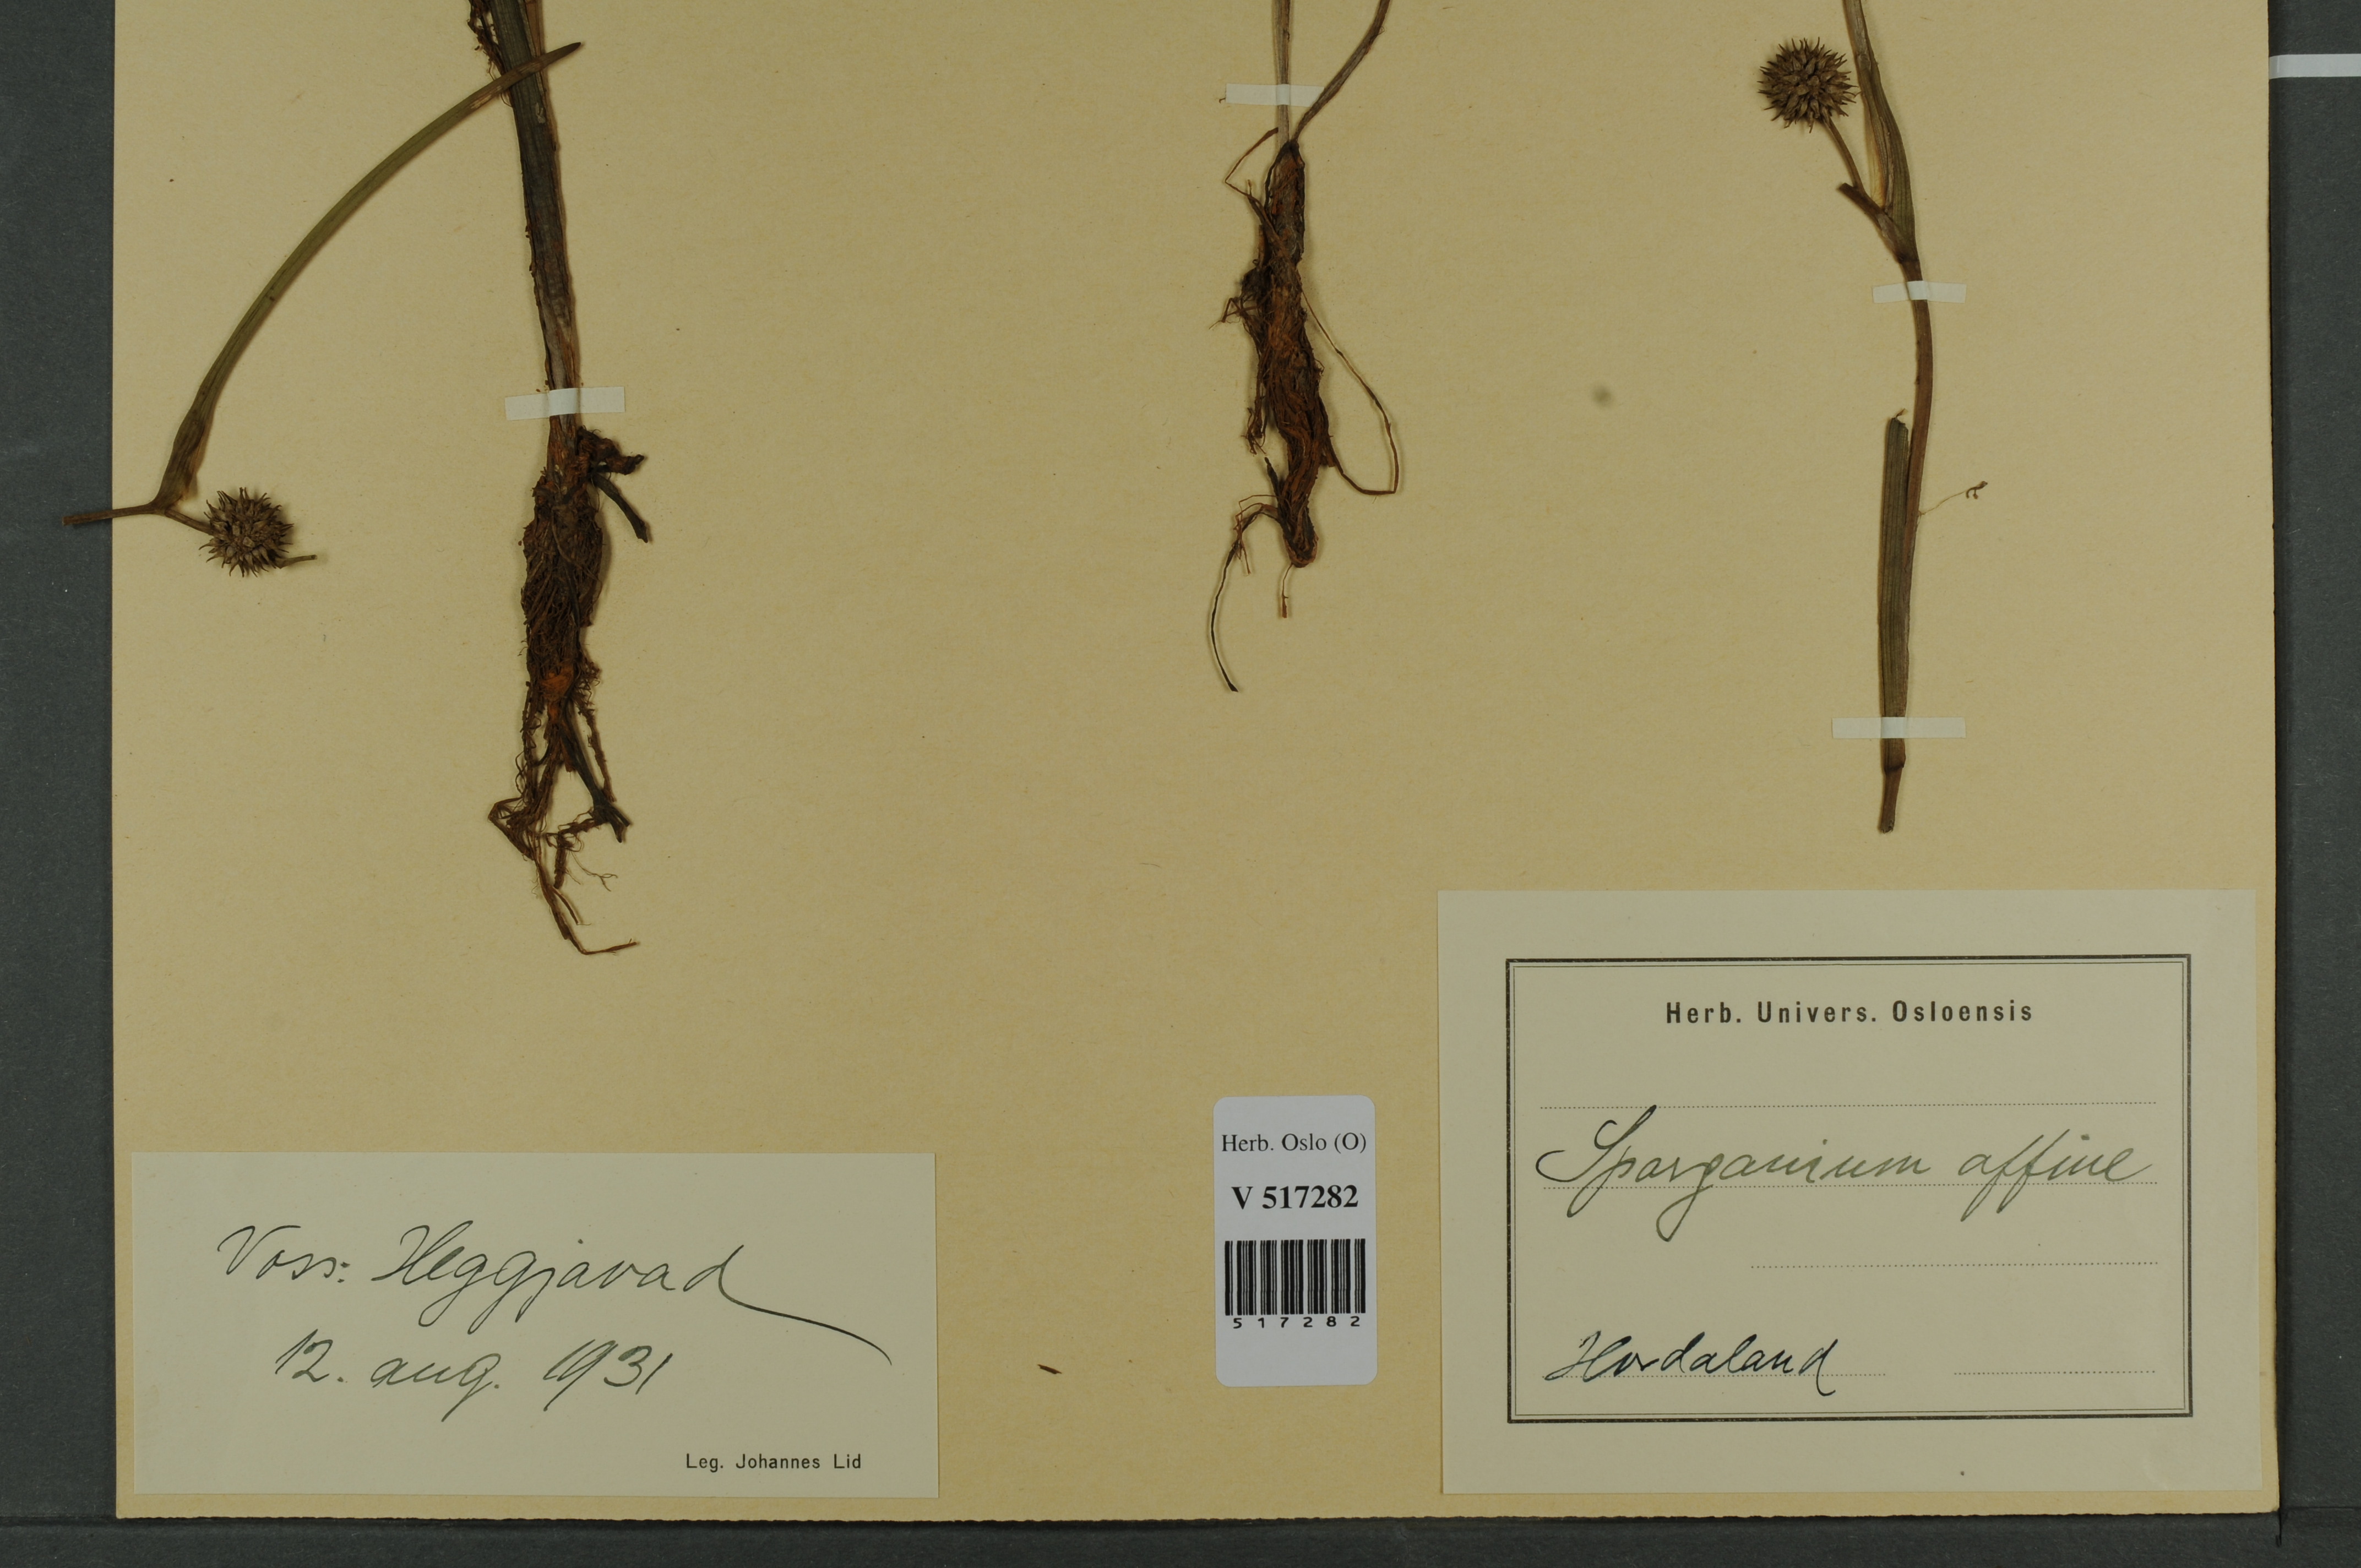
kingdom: Plantae
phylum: Tracheophyta
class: Liliopsida
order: Poales
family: Typhaceae
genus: Sparganium
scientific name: Sparganium angustifolium
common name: Floating bur-reed
